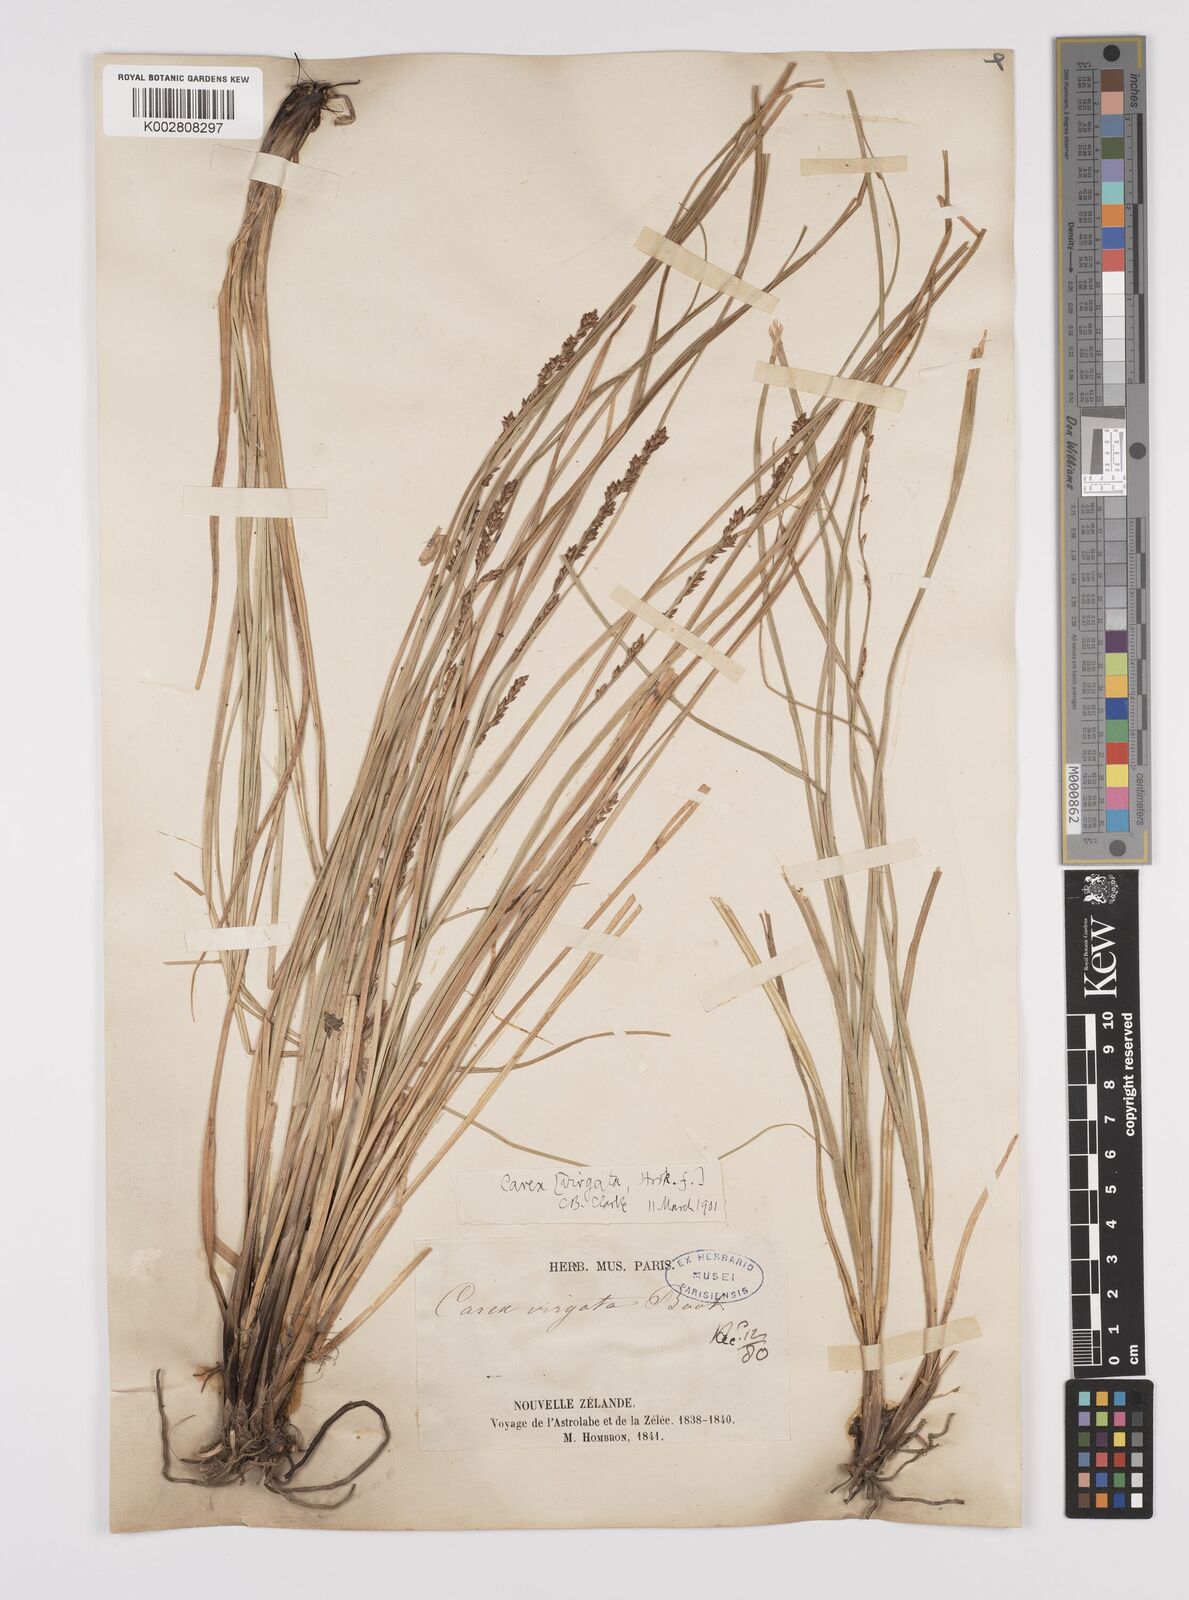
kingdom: Plantae
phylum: Tracheophyta
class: Liliopsida
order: Poales
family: Cyperaceae
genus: Carex
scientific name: Carex appressa
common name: Tussock sedge
